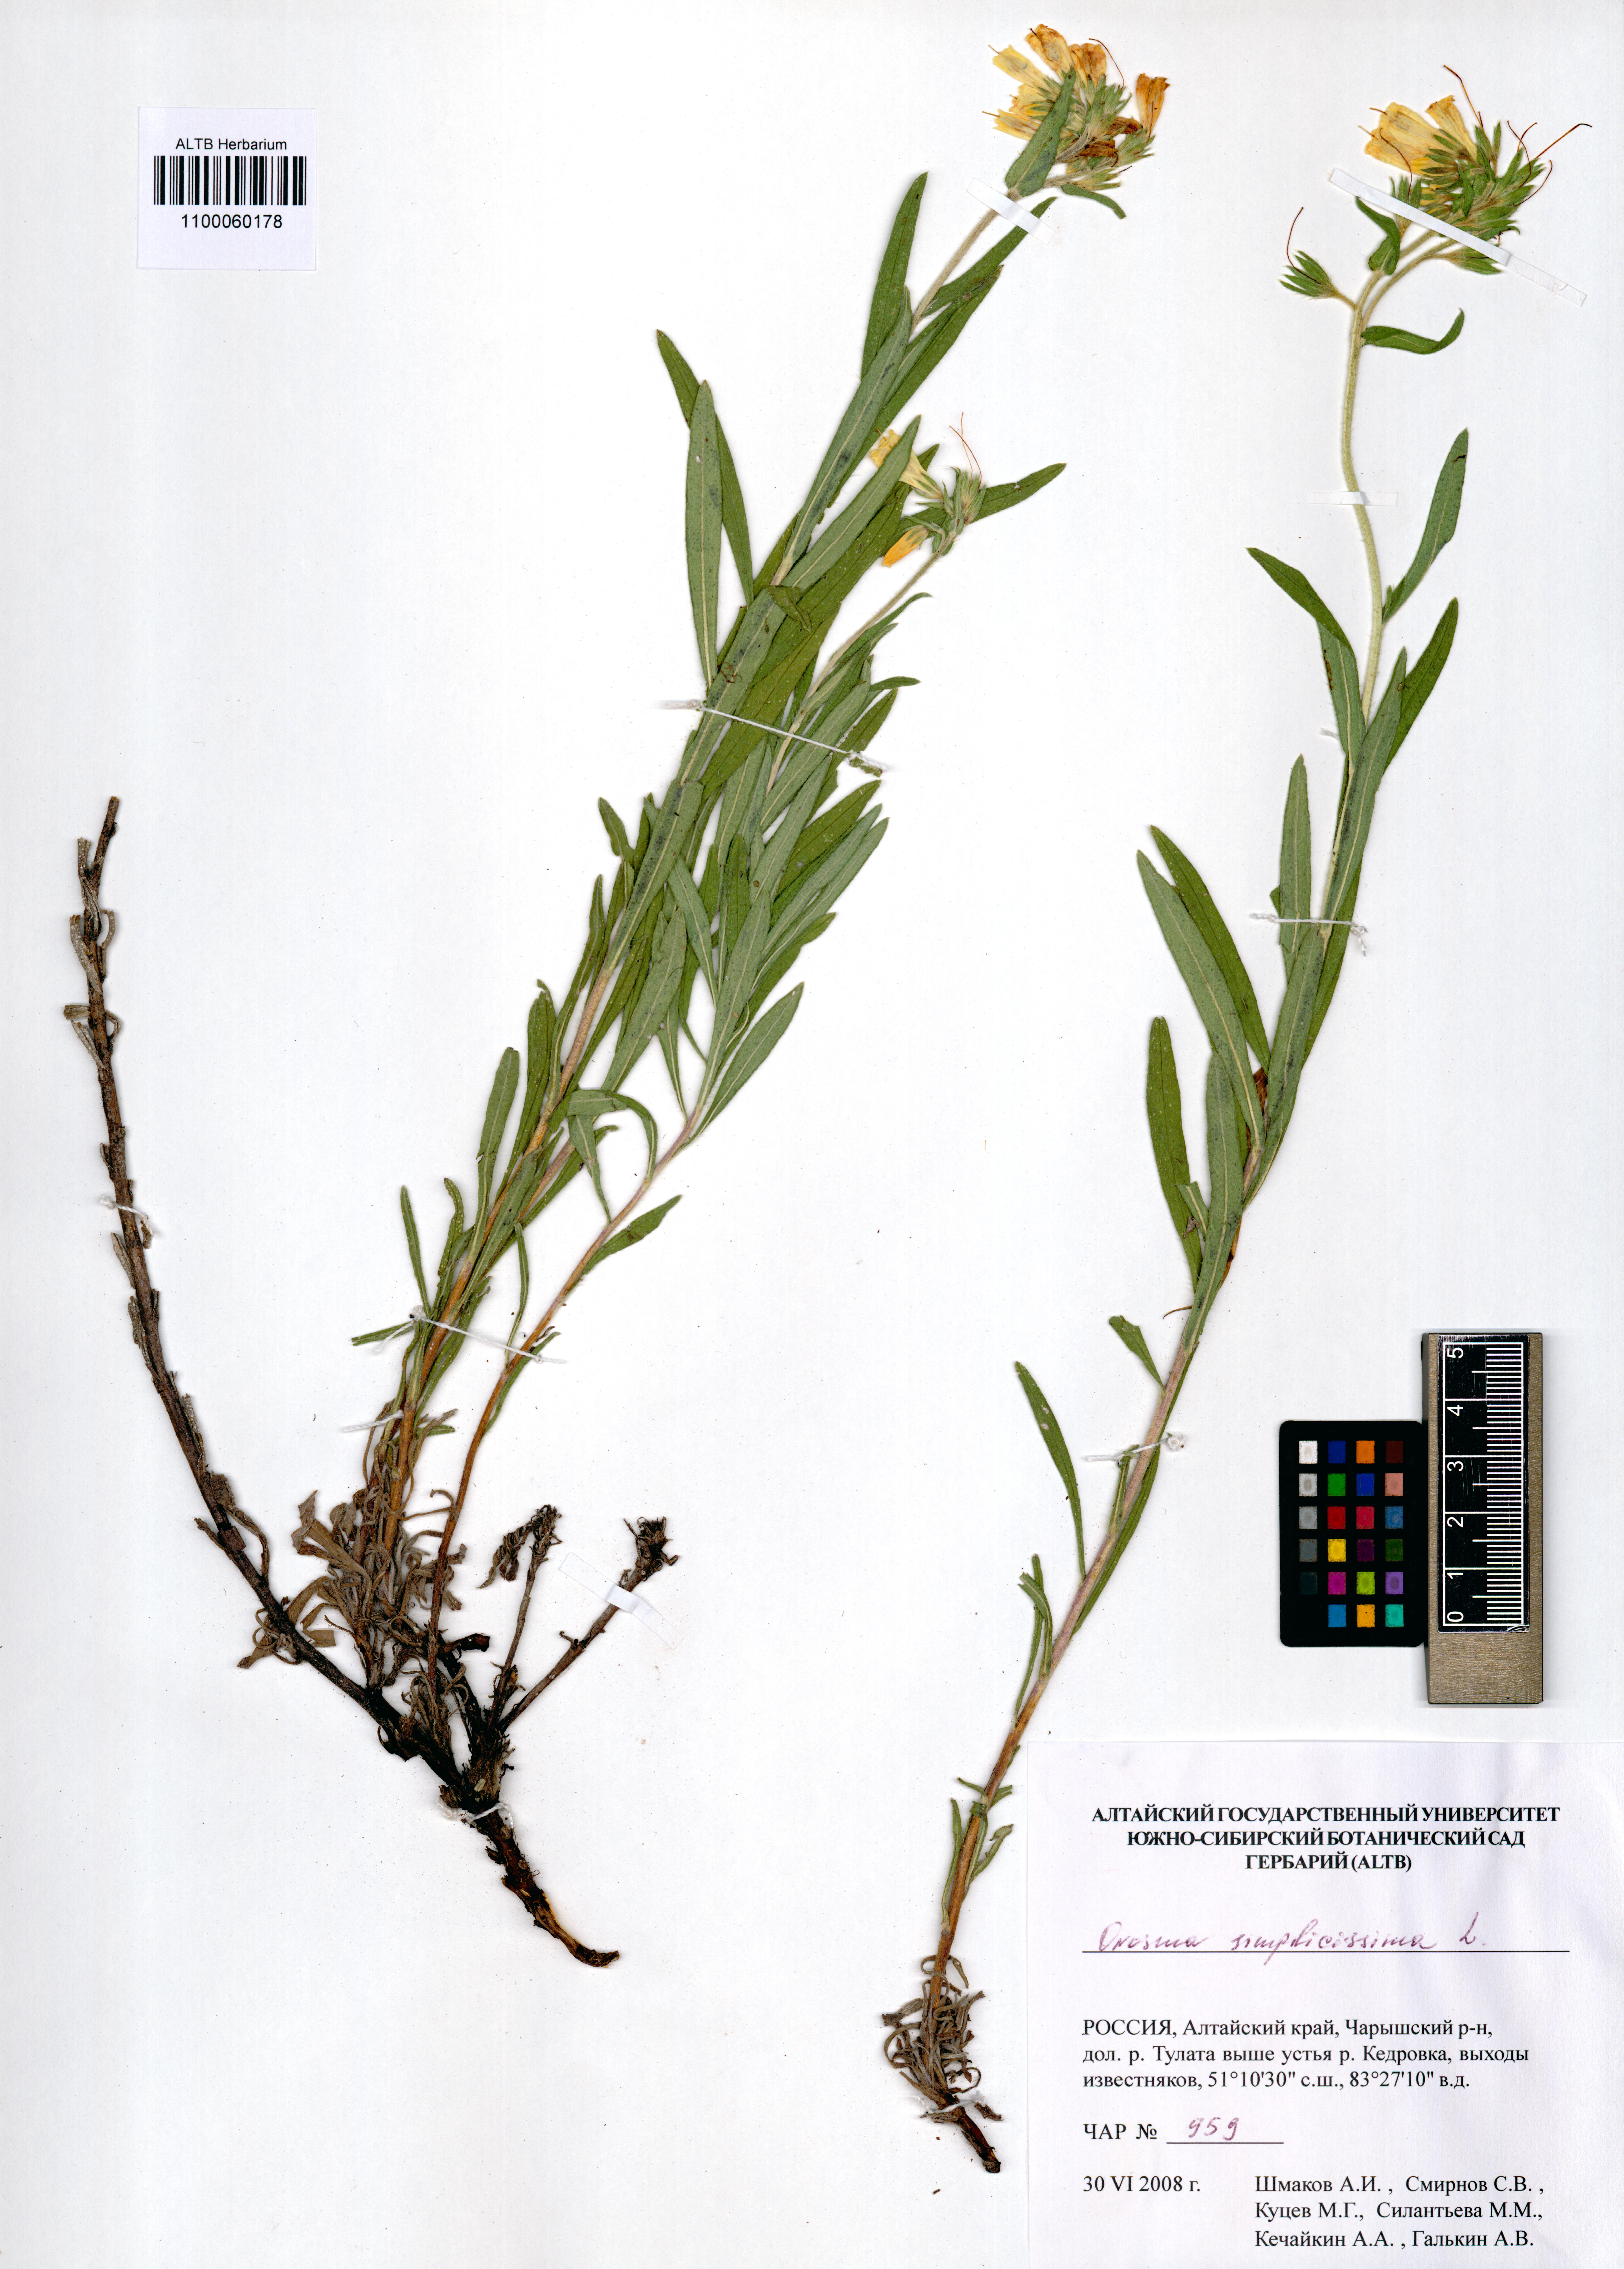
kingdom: Plantae
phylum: Tracheophyta
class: Magnoliopsida
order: Boraginales
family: Boraginaceae
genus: Onosma
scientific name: Onosma simplicissima
